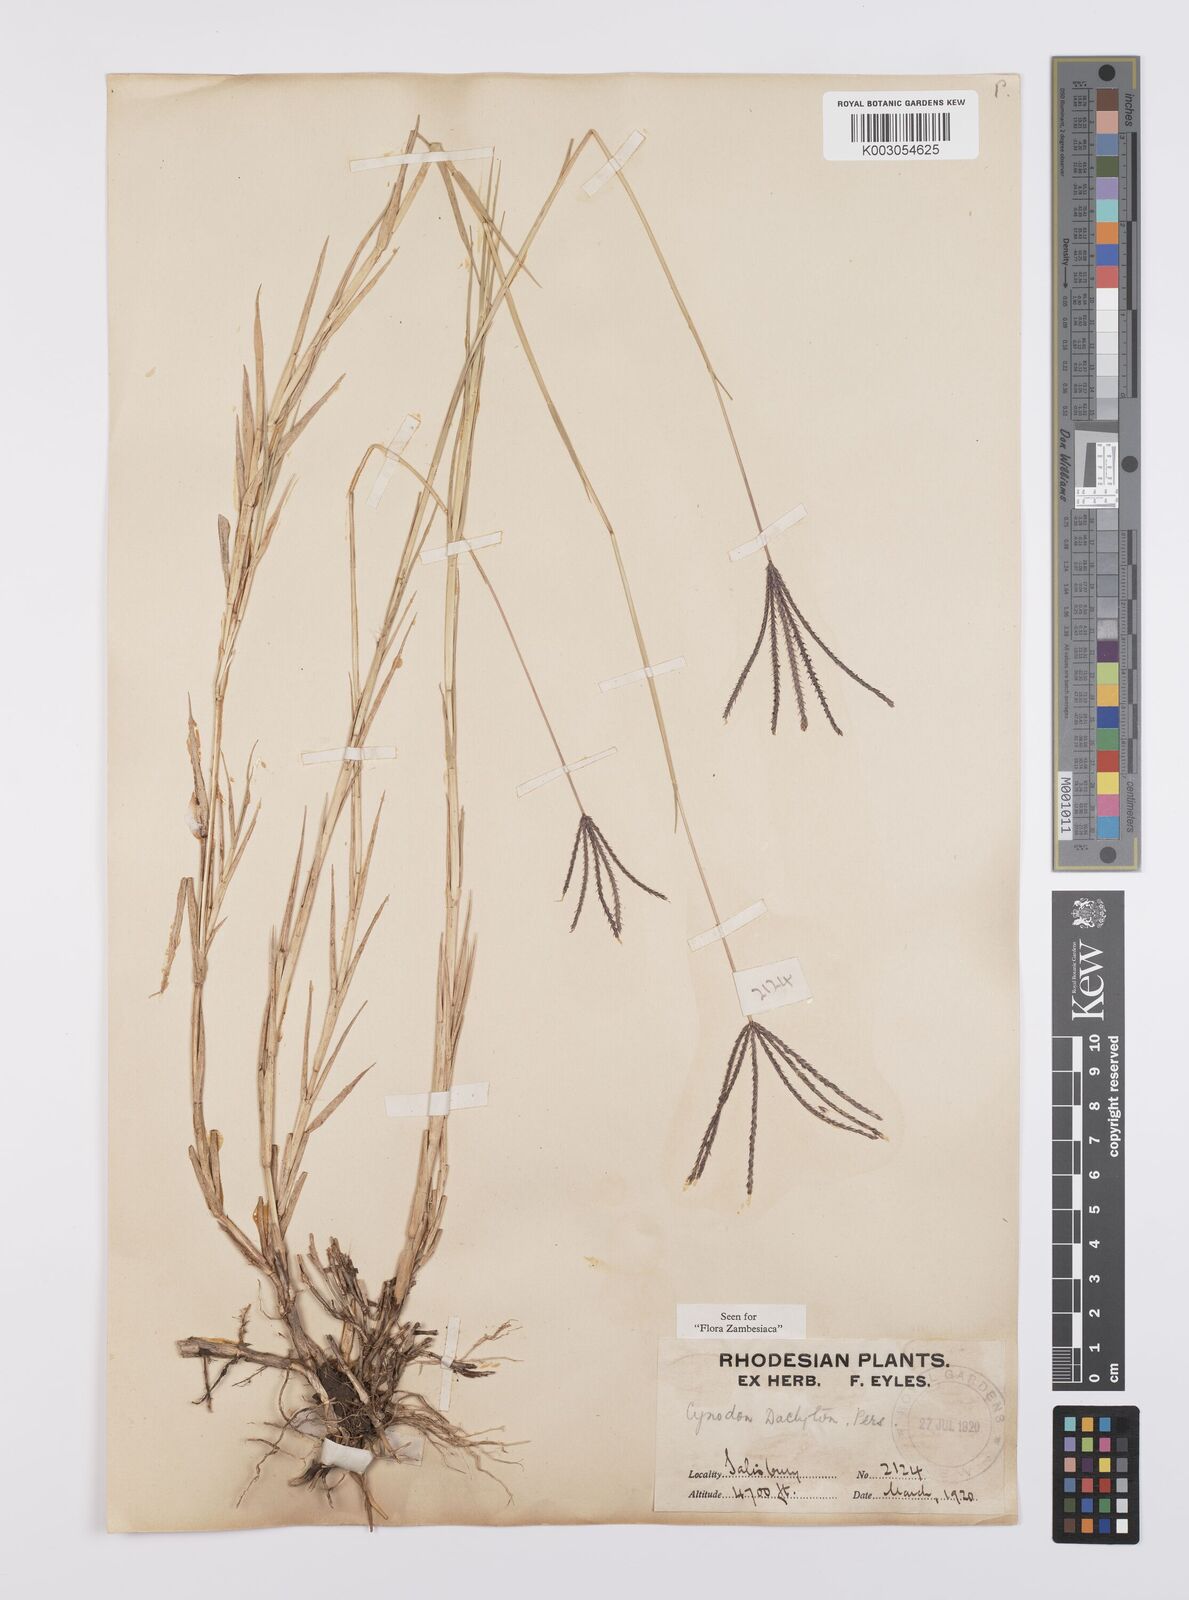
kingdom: Plantae
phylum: Tracheophyta
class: Liliopsida
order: Poales
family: Poaceae
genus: Cynodon
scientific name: Cynodon dactylon
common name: Bermuda grass
